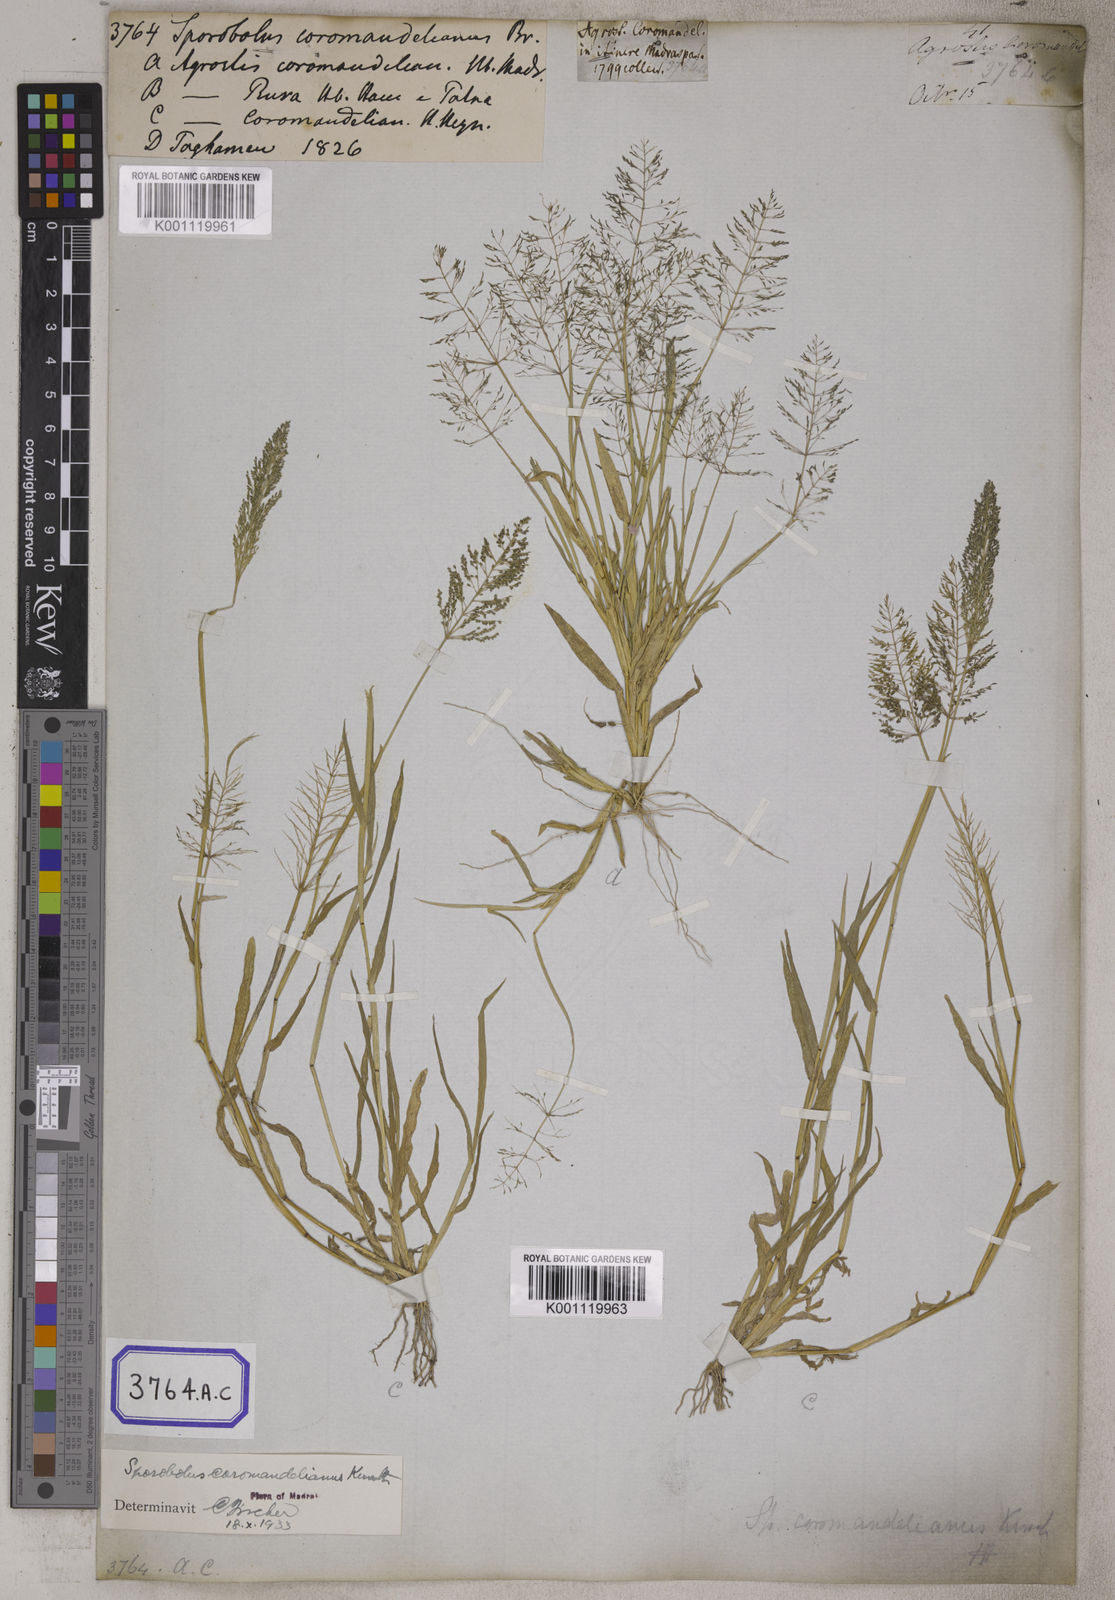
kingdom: Plantae
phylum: Tracheophyta
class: Liliopsida
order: Poales
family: Poaceae
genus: Sporobolus
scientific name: Sporobolus coromandelianus
